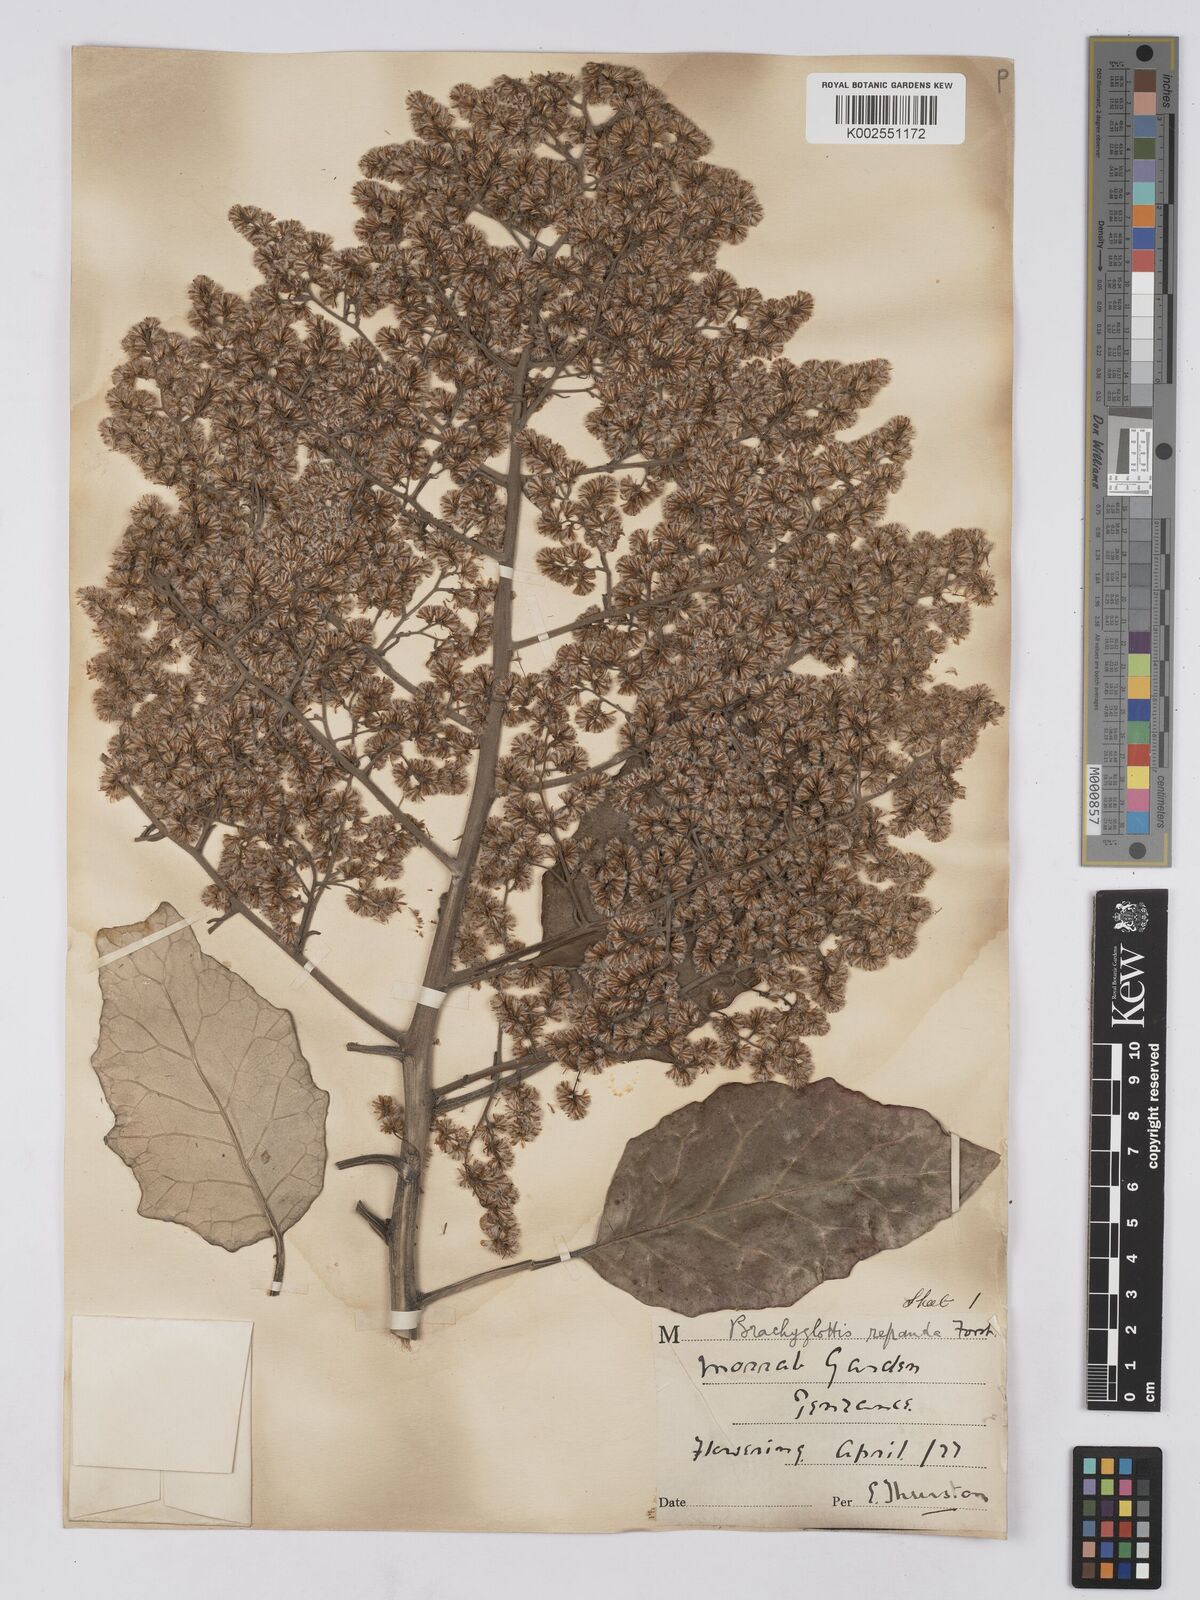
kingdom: Plantae
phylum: Tracheophyta
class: Magnoliopsida
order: Asterales
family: Asteraceae
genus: Brachyglottis
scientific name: Brachyglottis repanda
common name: Hedge ragwort
